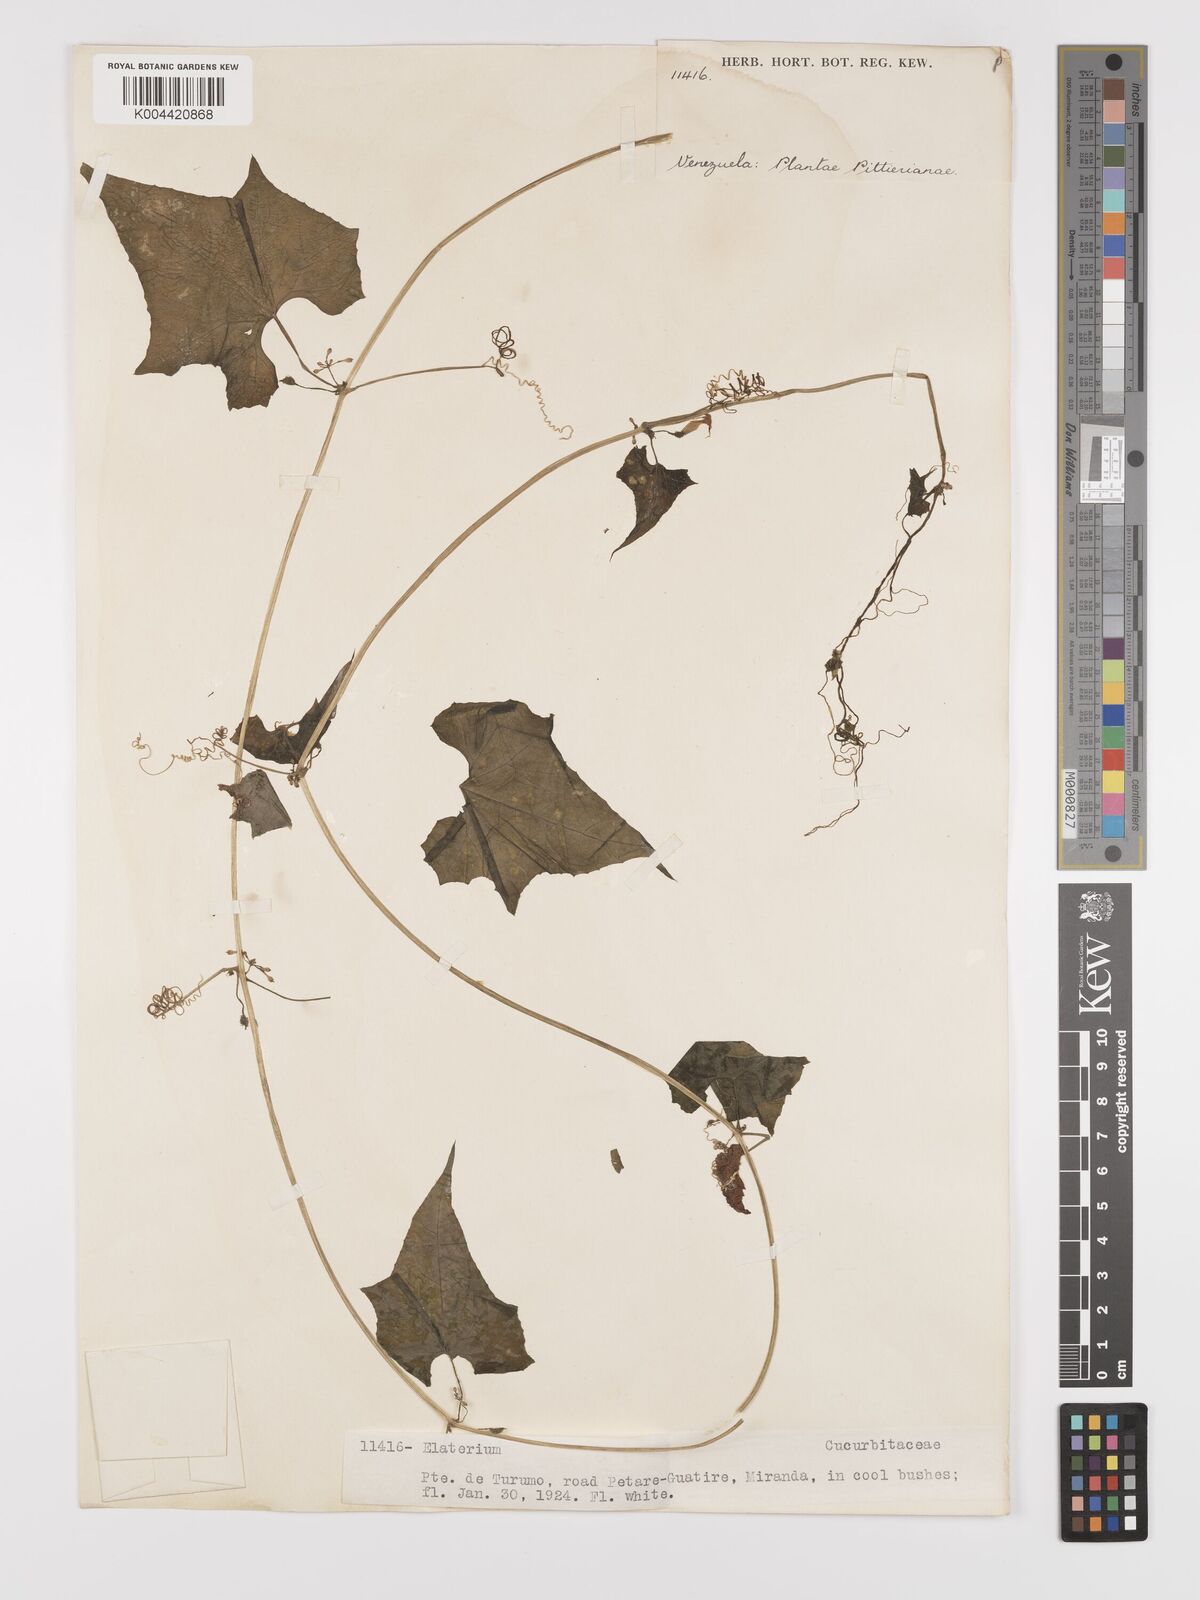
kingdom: Plantae
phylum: Tracheophyta
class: Magnoliopsida
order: Cucurbitales
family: Cucurbitaceae
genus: Cyclanthera
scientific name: Cyclanthera carthagenensis
